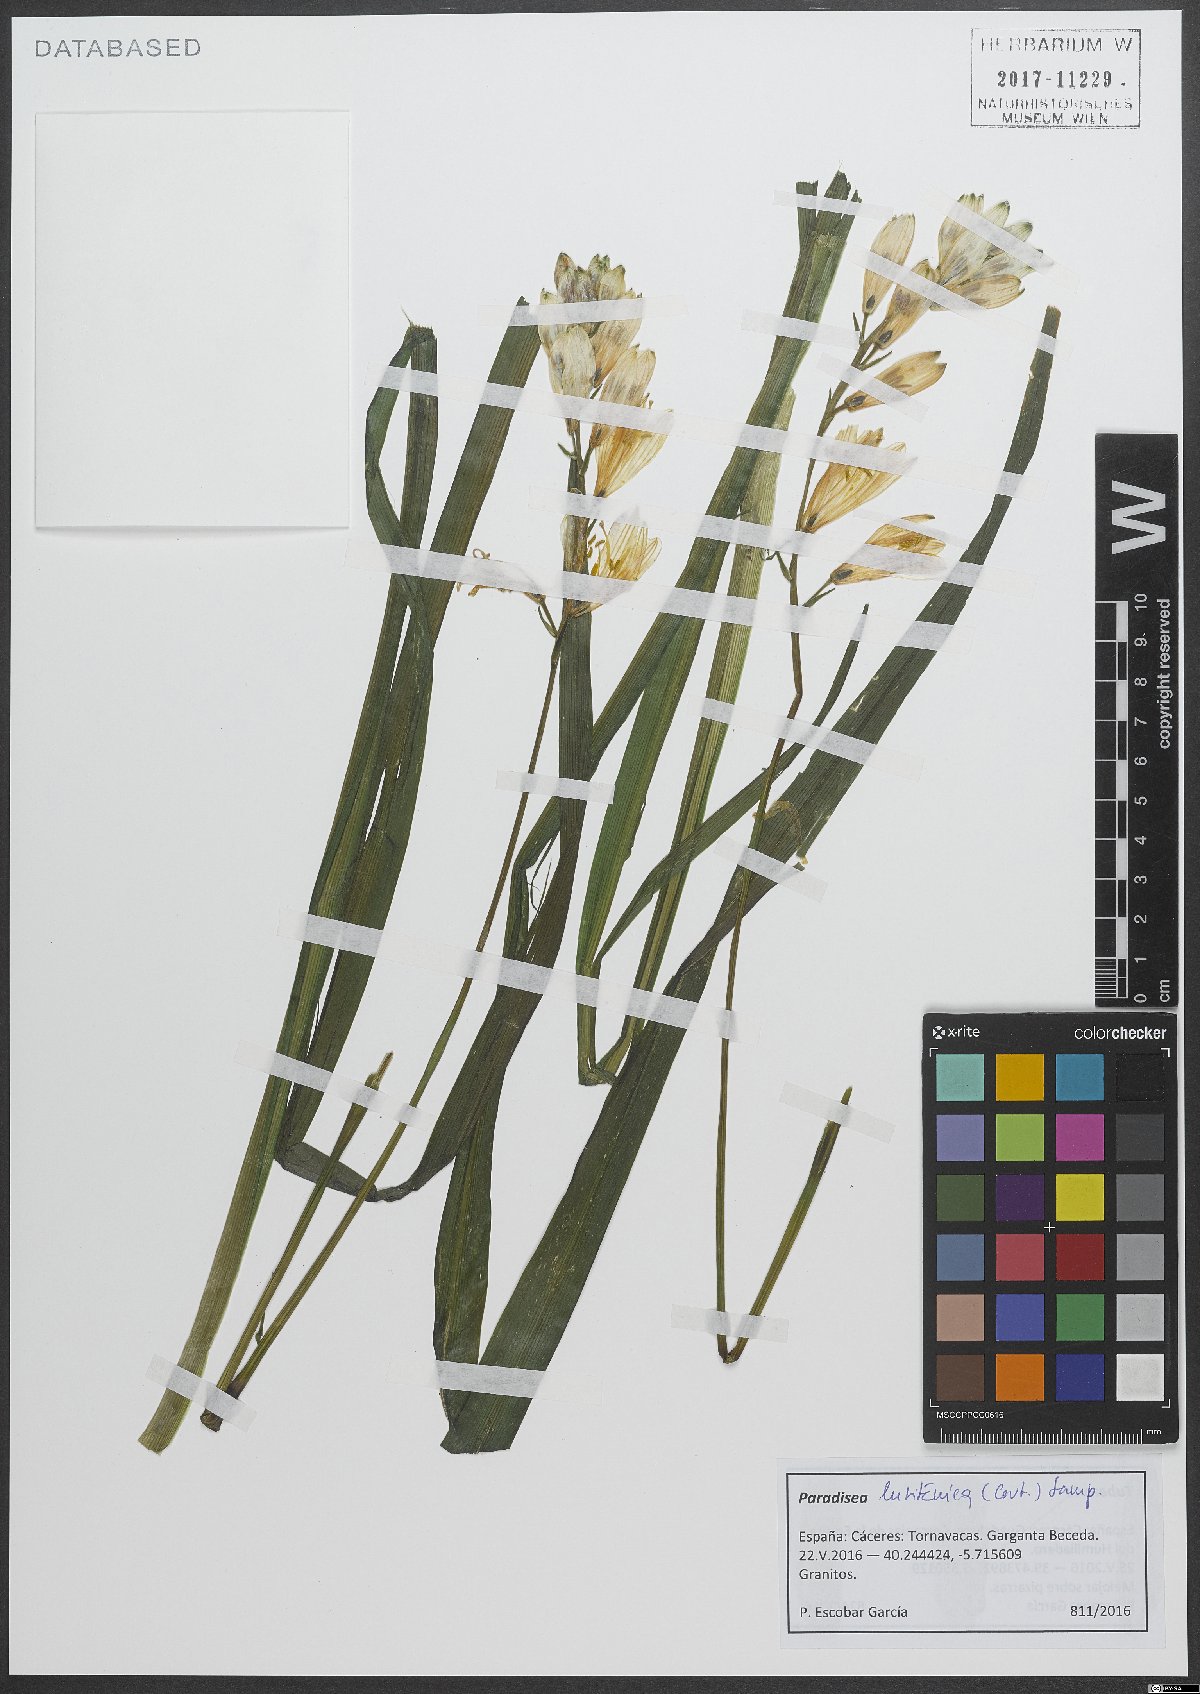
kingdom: Plantae
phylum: Tracheophyta
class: Liliopsida
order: Asparagales
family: Asparagaceae
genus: Paradisea
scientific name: Paradisea lusitanica
